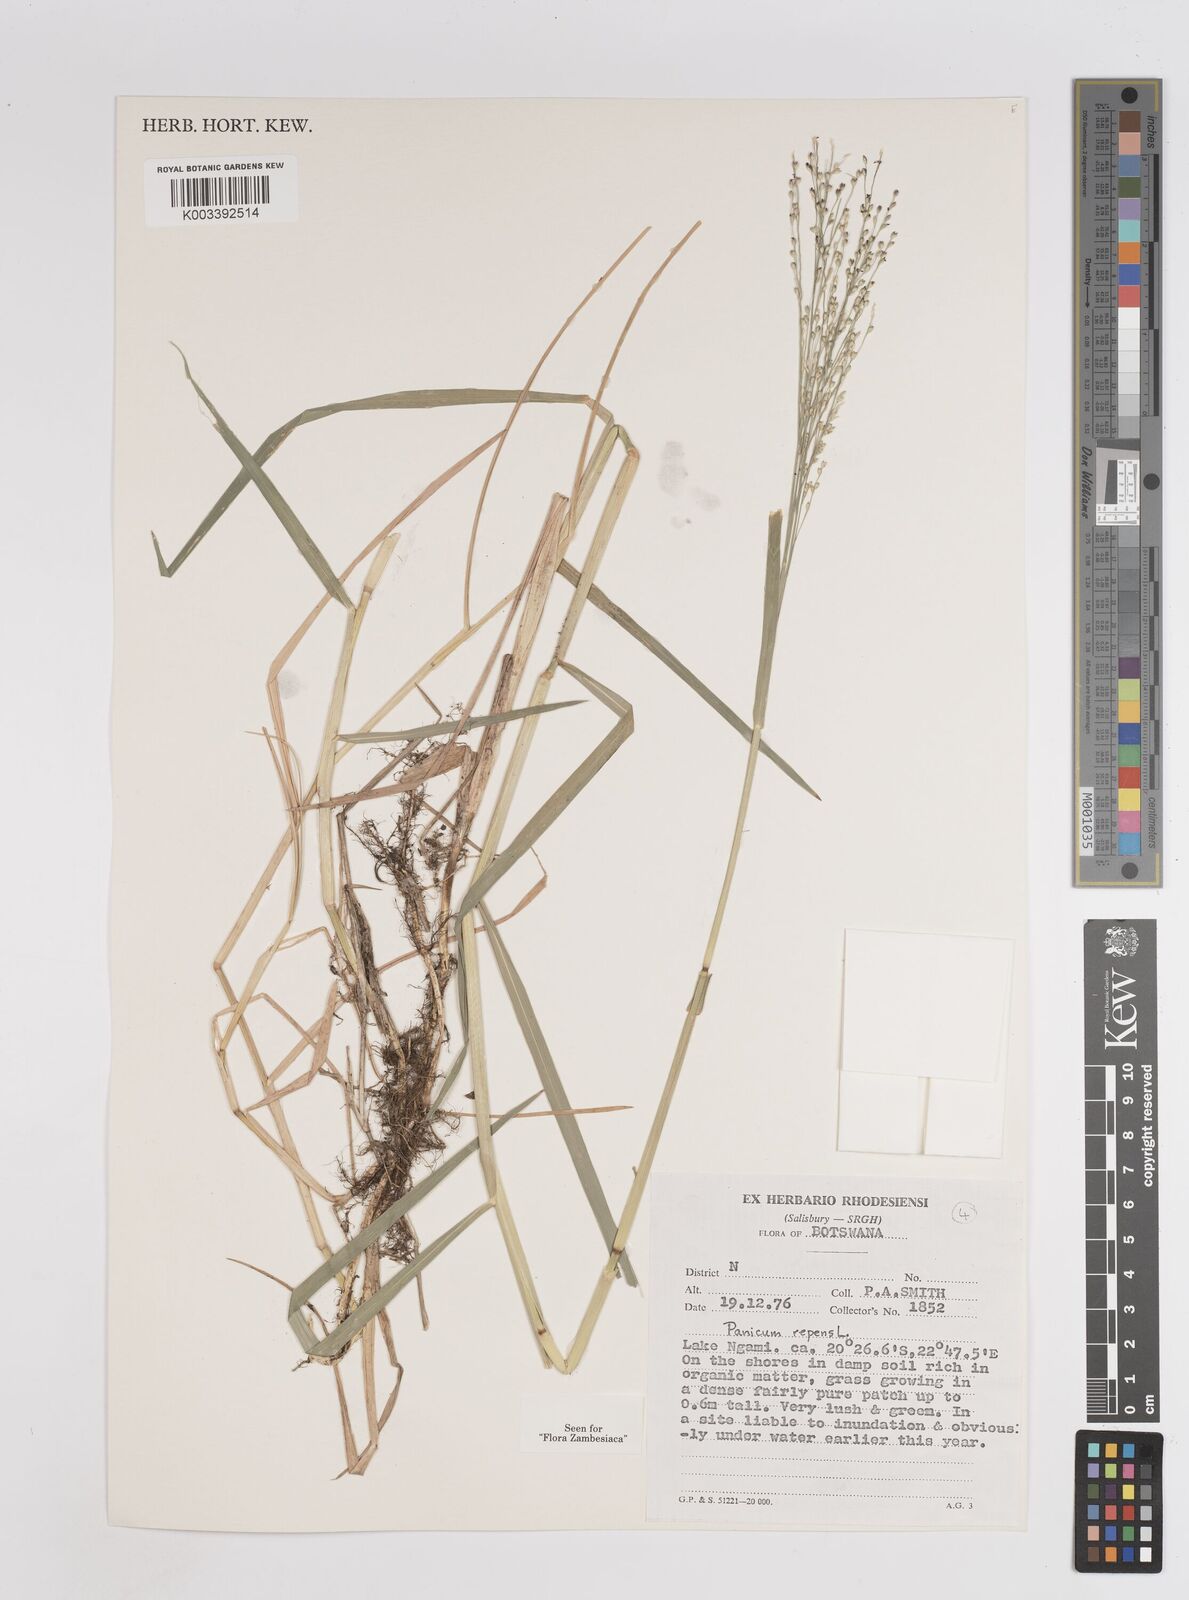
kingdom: Plantae
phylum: Tracheophyta
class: Liliopsida
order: Poales
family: Poaceae
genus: Panicum
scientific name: Panicum repens
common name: Torpedo grass
